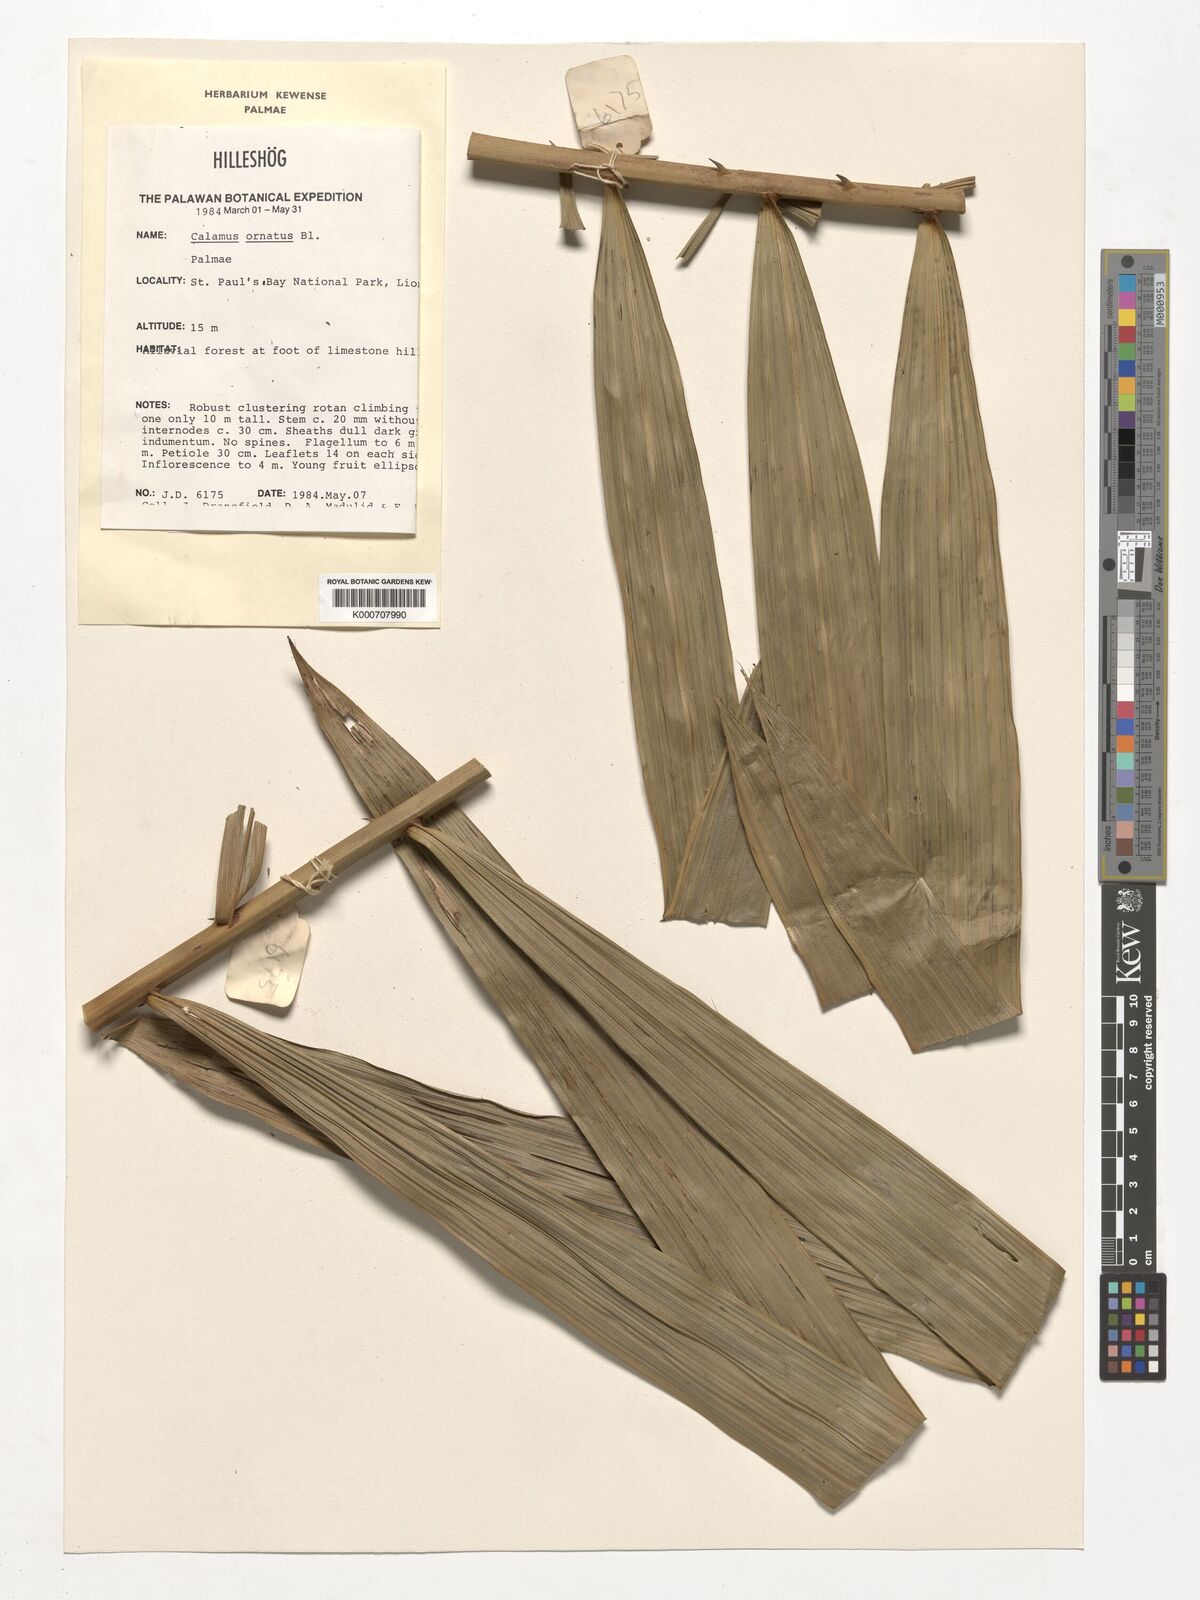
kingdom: Plantae
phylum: Tracheophyta
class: Liliopsida
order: Arecales
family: Arecaceae
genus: Calamus
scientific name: Calamus ornatus
